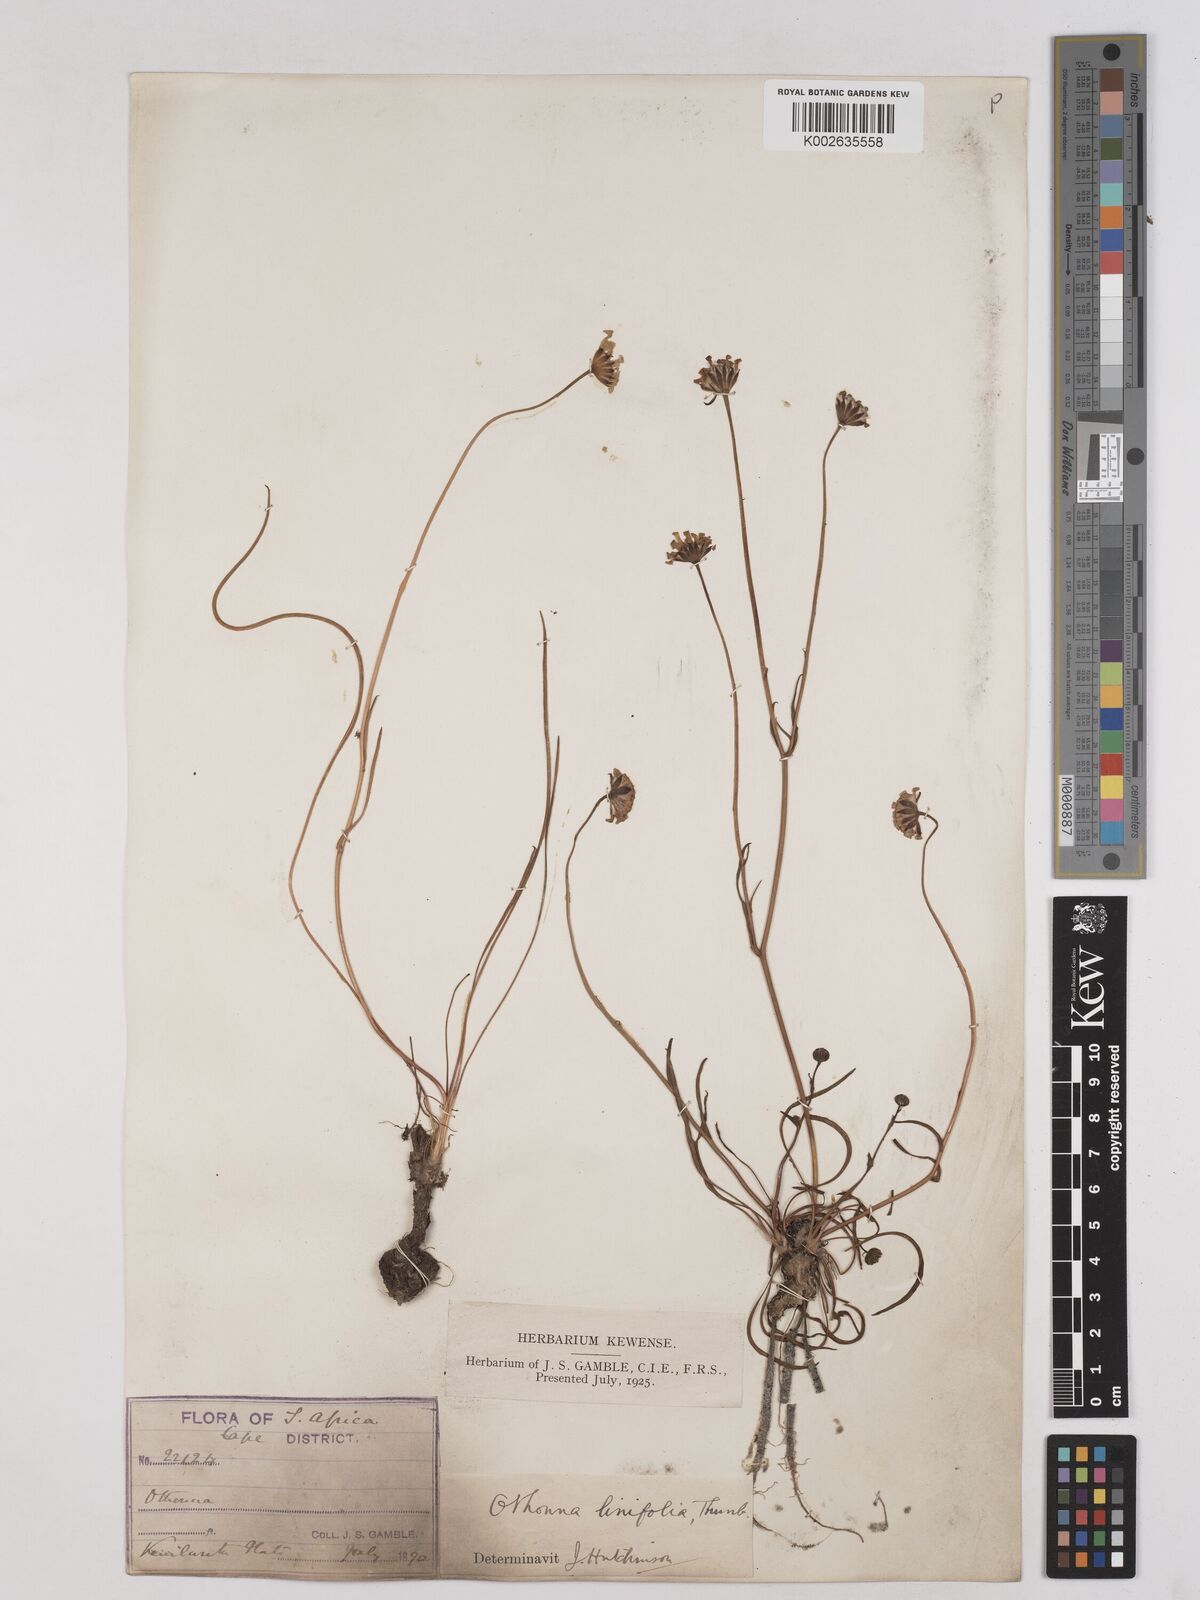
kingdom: Plantae
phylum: Tracheophyta
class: Magnoliopsida
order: Asterales
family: Asteraceae
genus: Othonna
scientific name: Othonna stenophylla
